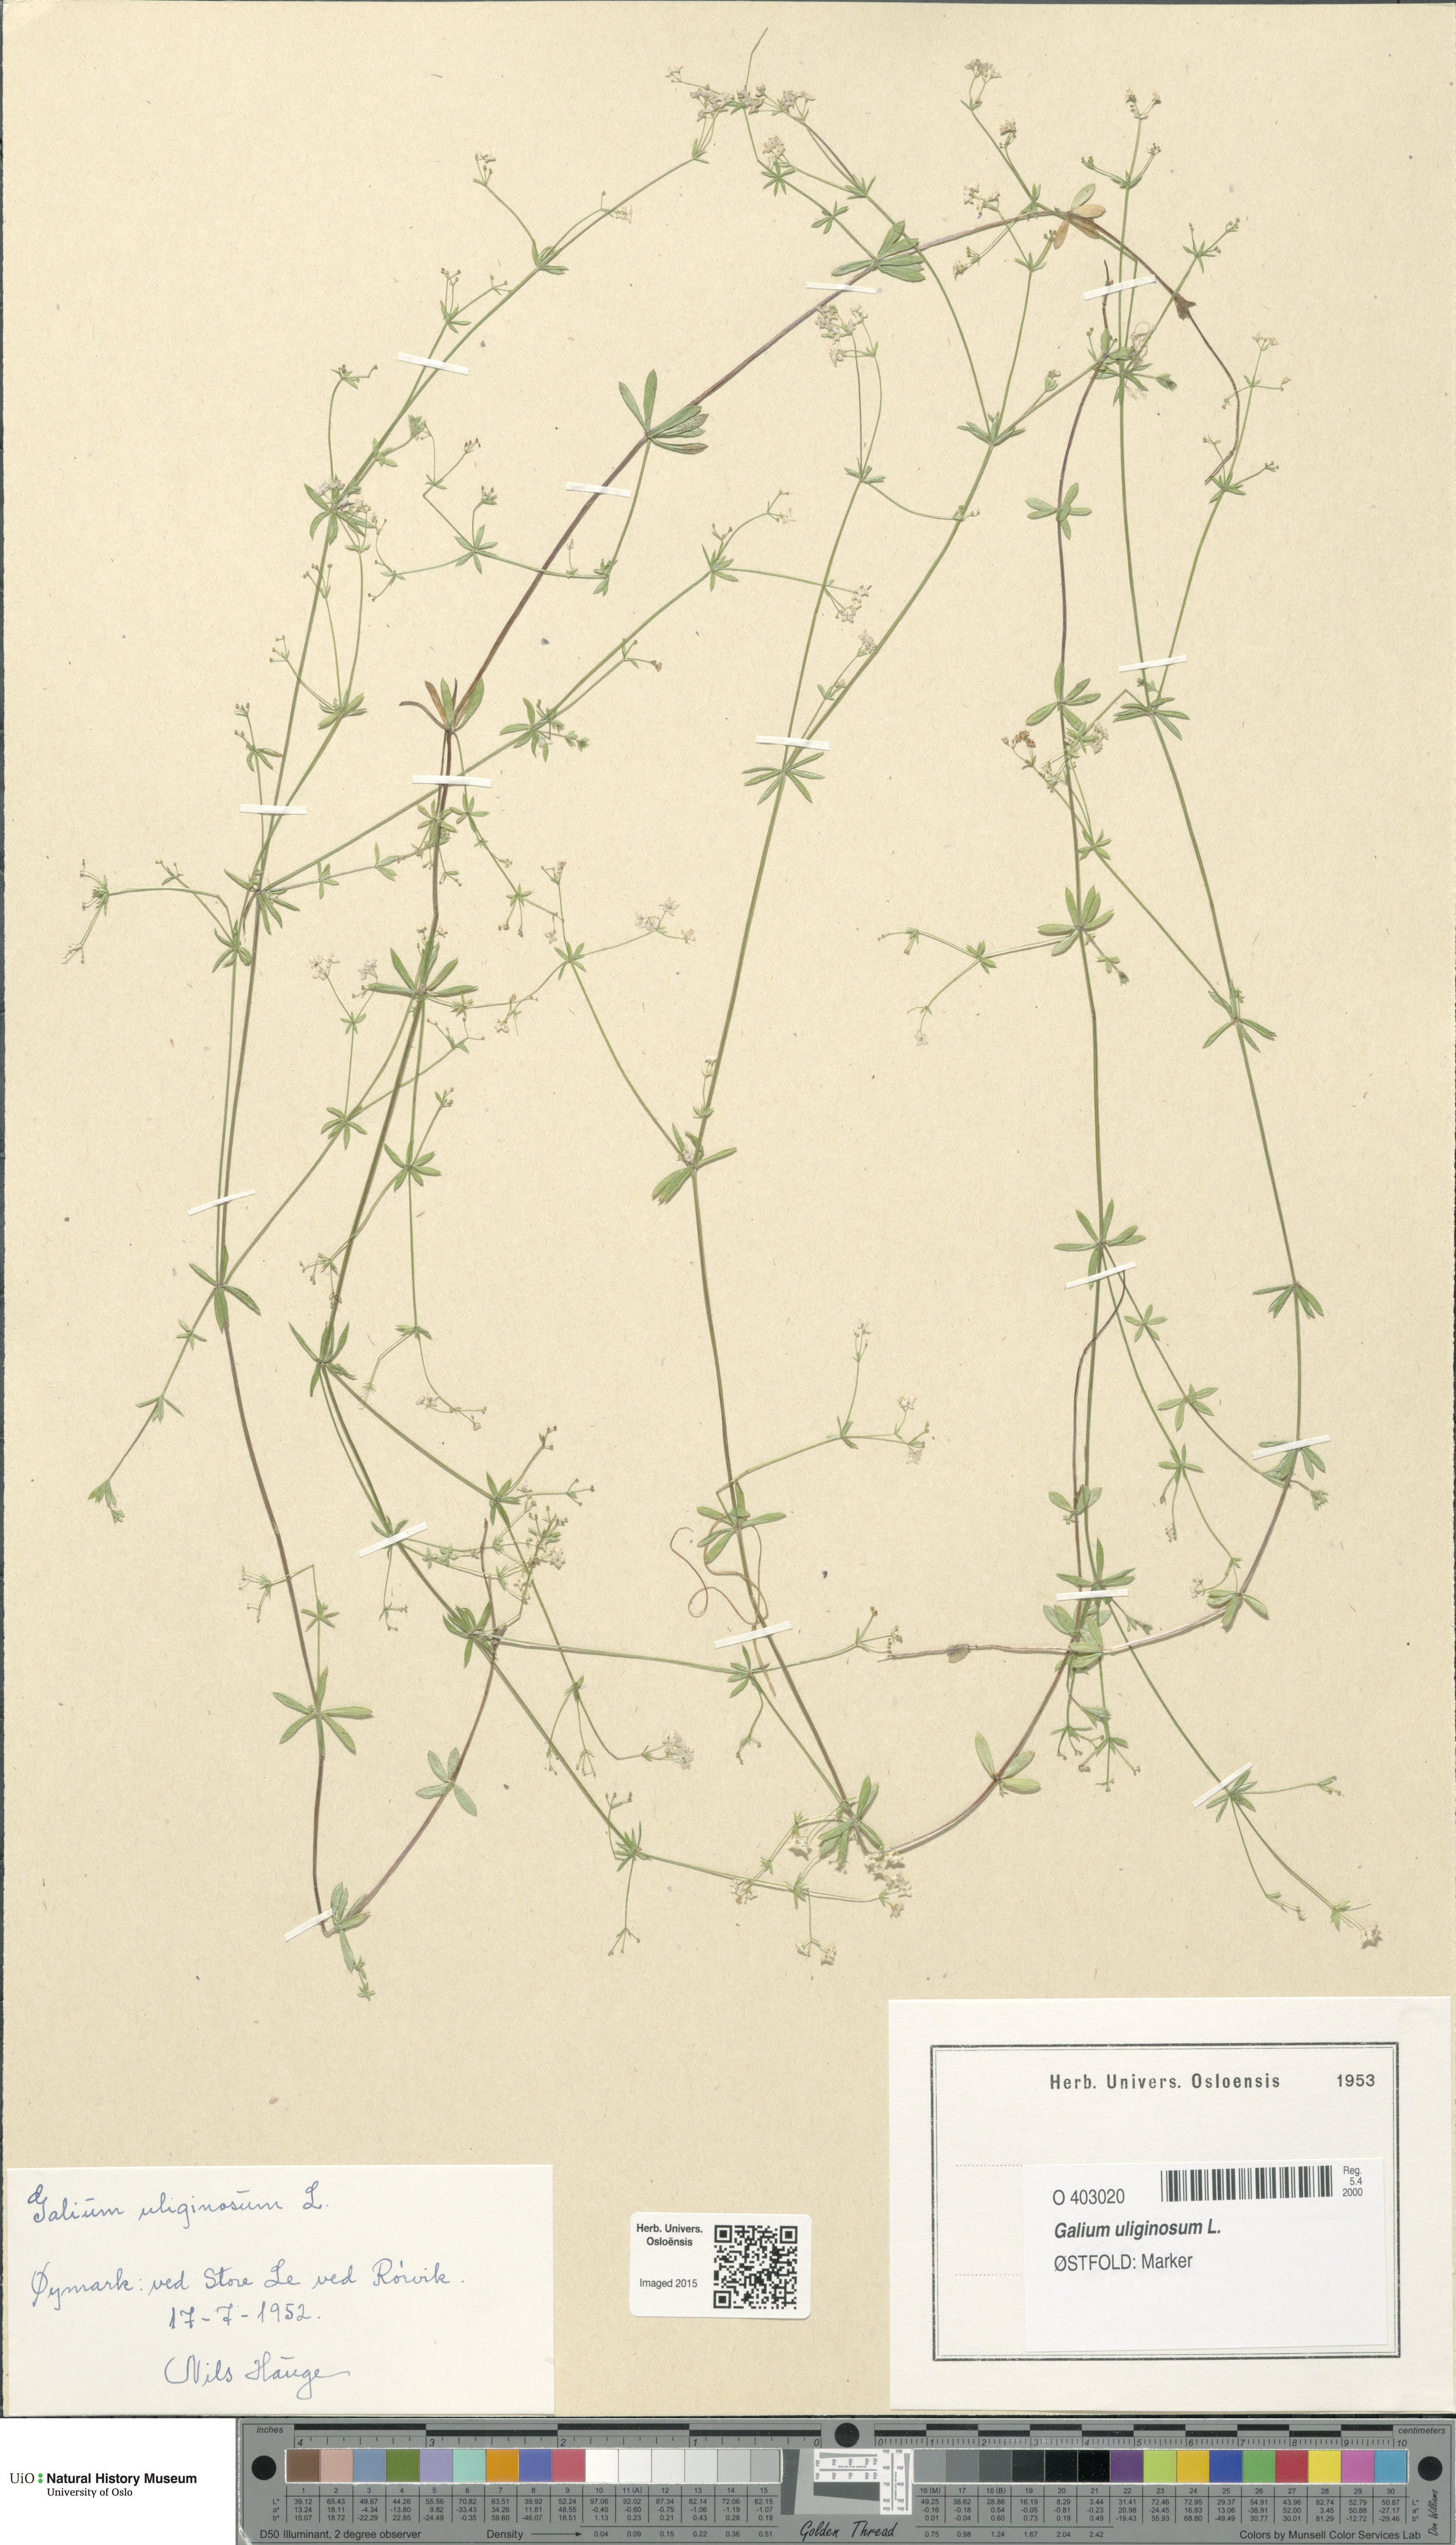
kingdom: Plantae
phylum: Tracheophyta
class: Magnoliopsida
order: Gentianales
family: Rubiaceae
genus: Galium
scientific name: Galium uliginosum
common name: Fen bedstraw
